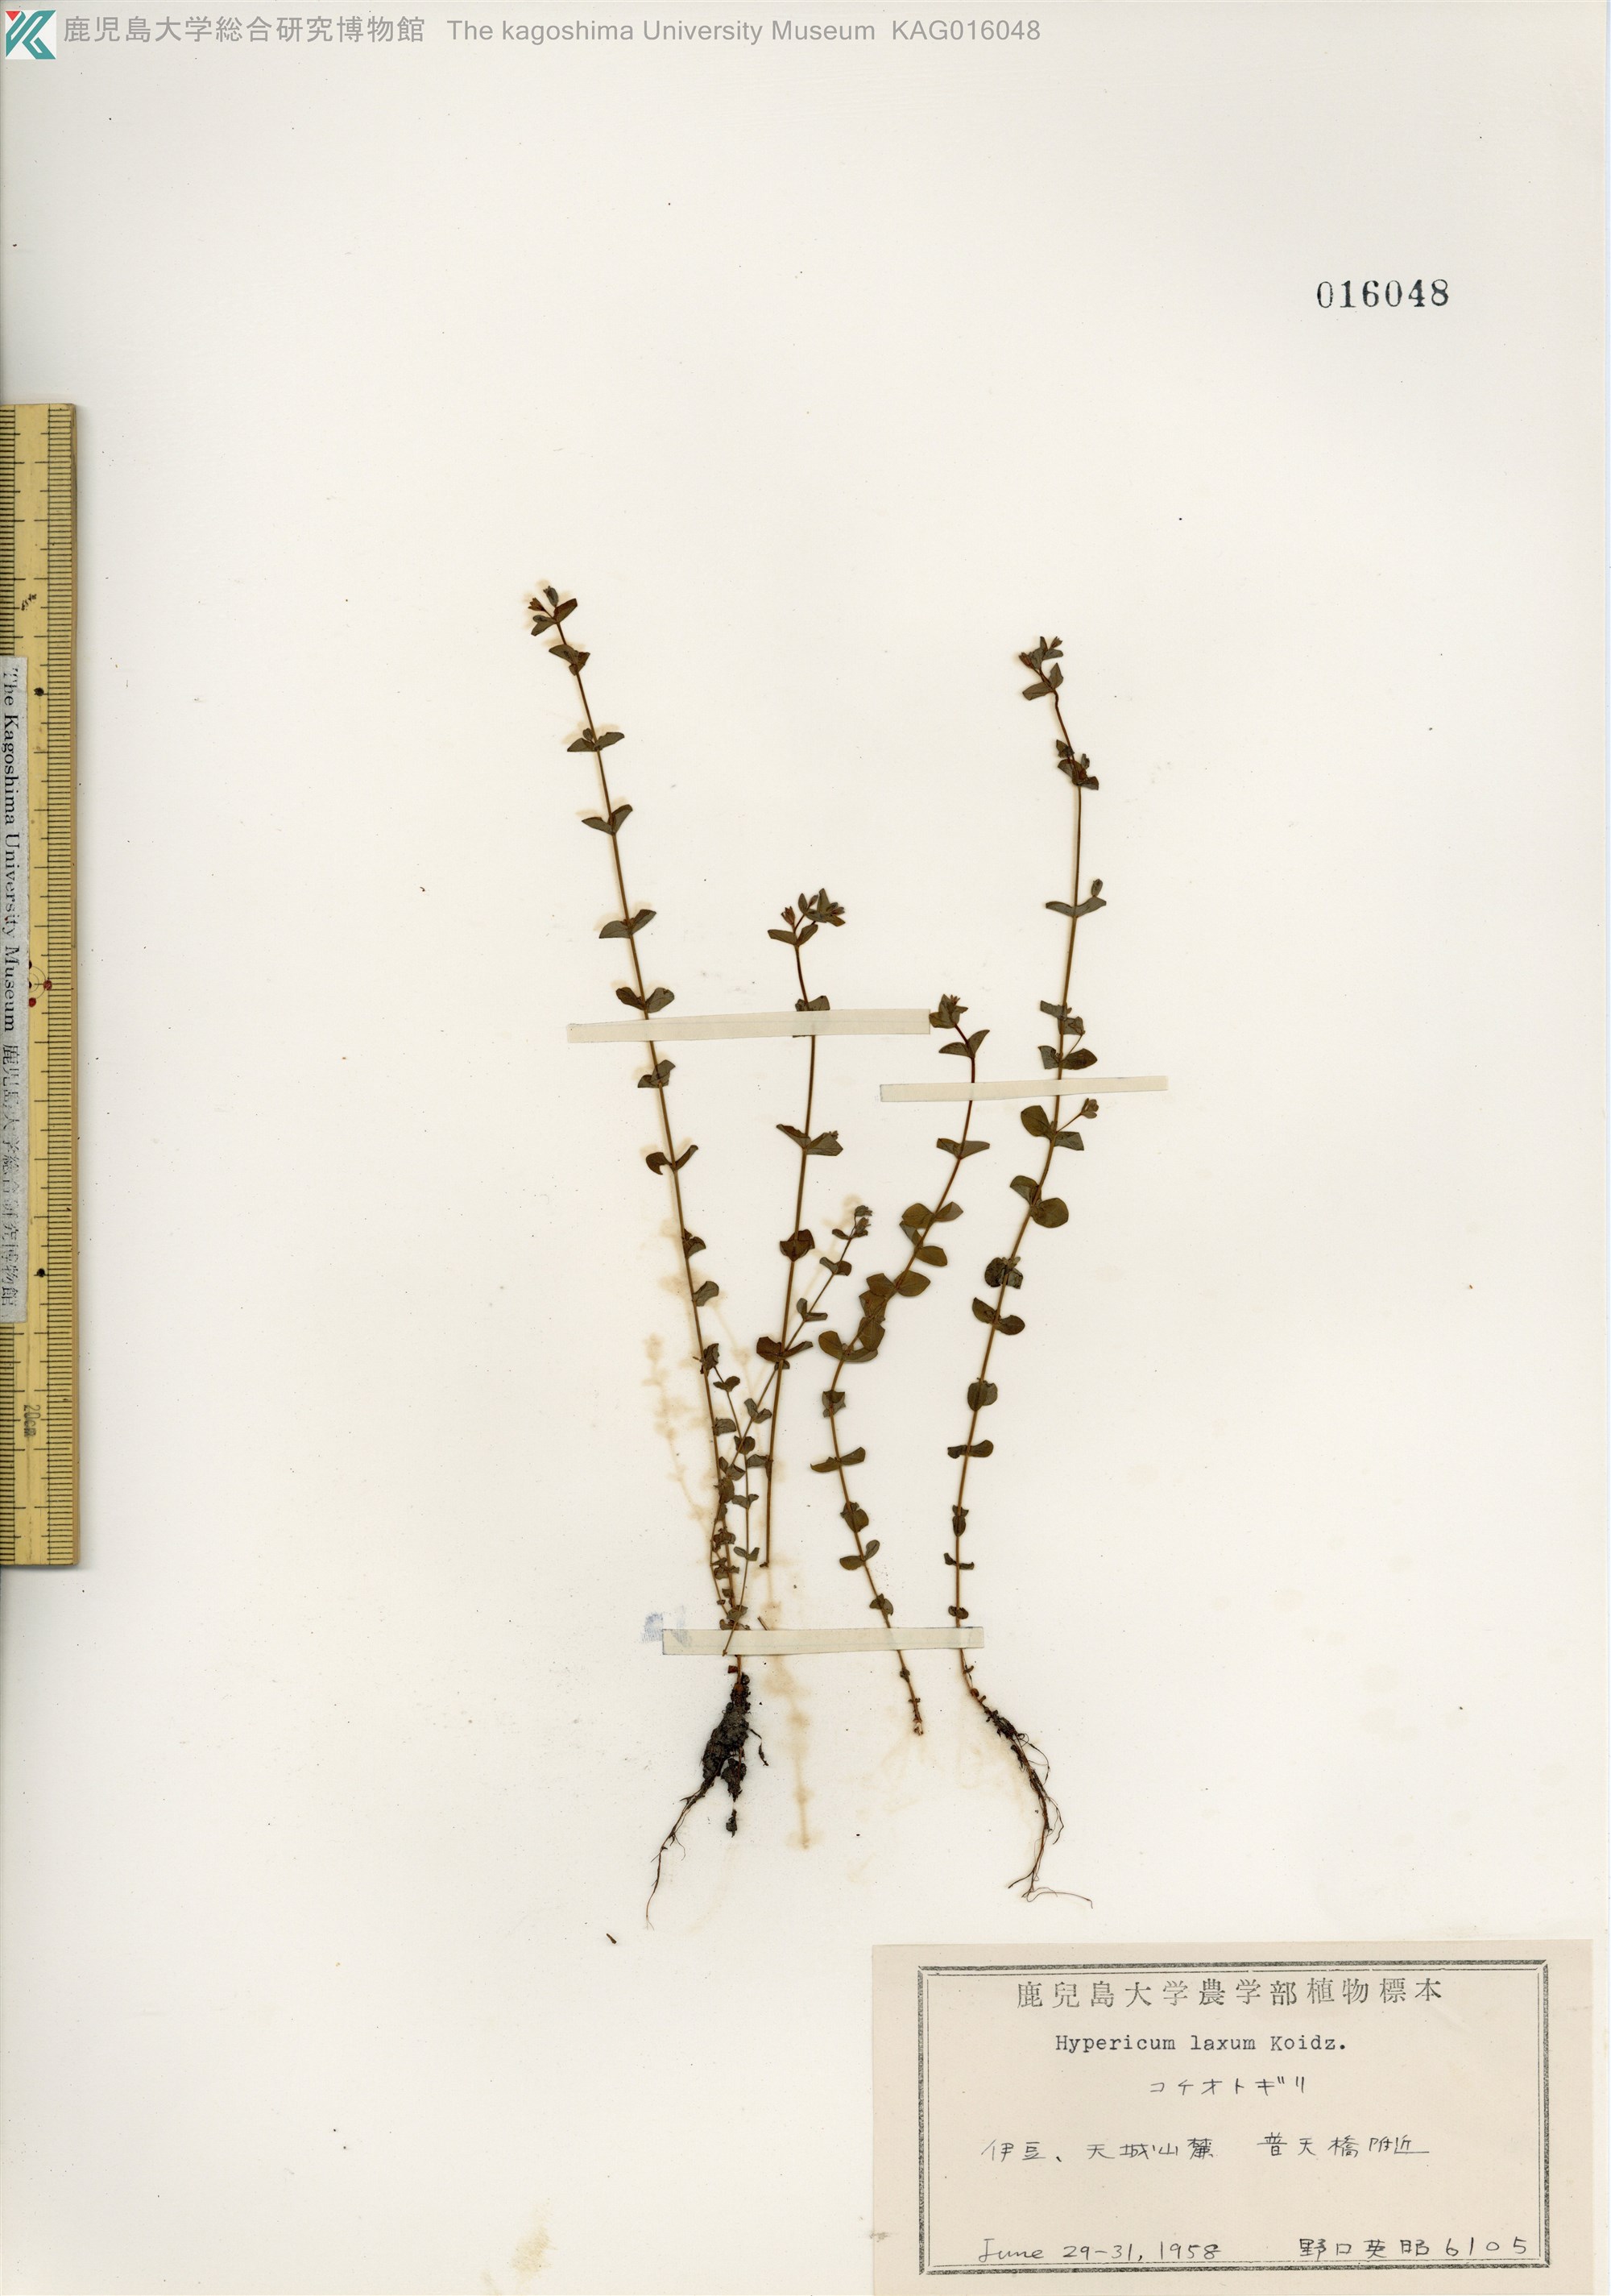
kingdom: Plantae
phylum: Tracheophyta
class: Magnoliopsida
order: Malpighiales
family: Hypericaceae
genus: Hypericum
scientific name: Hypericum japonicum
